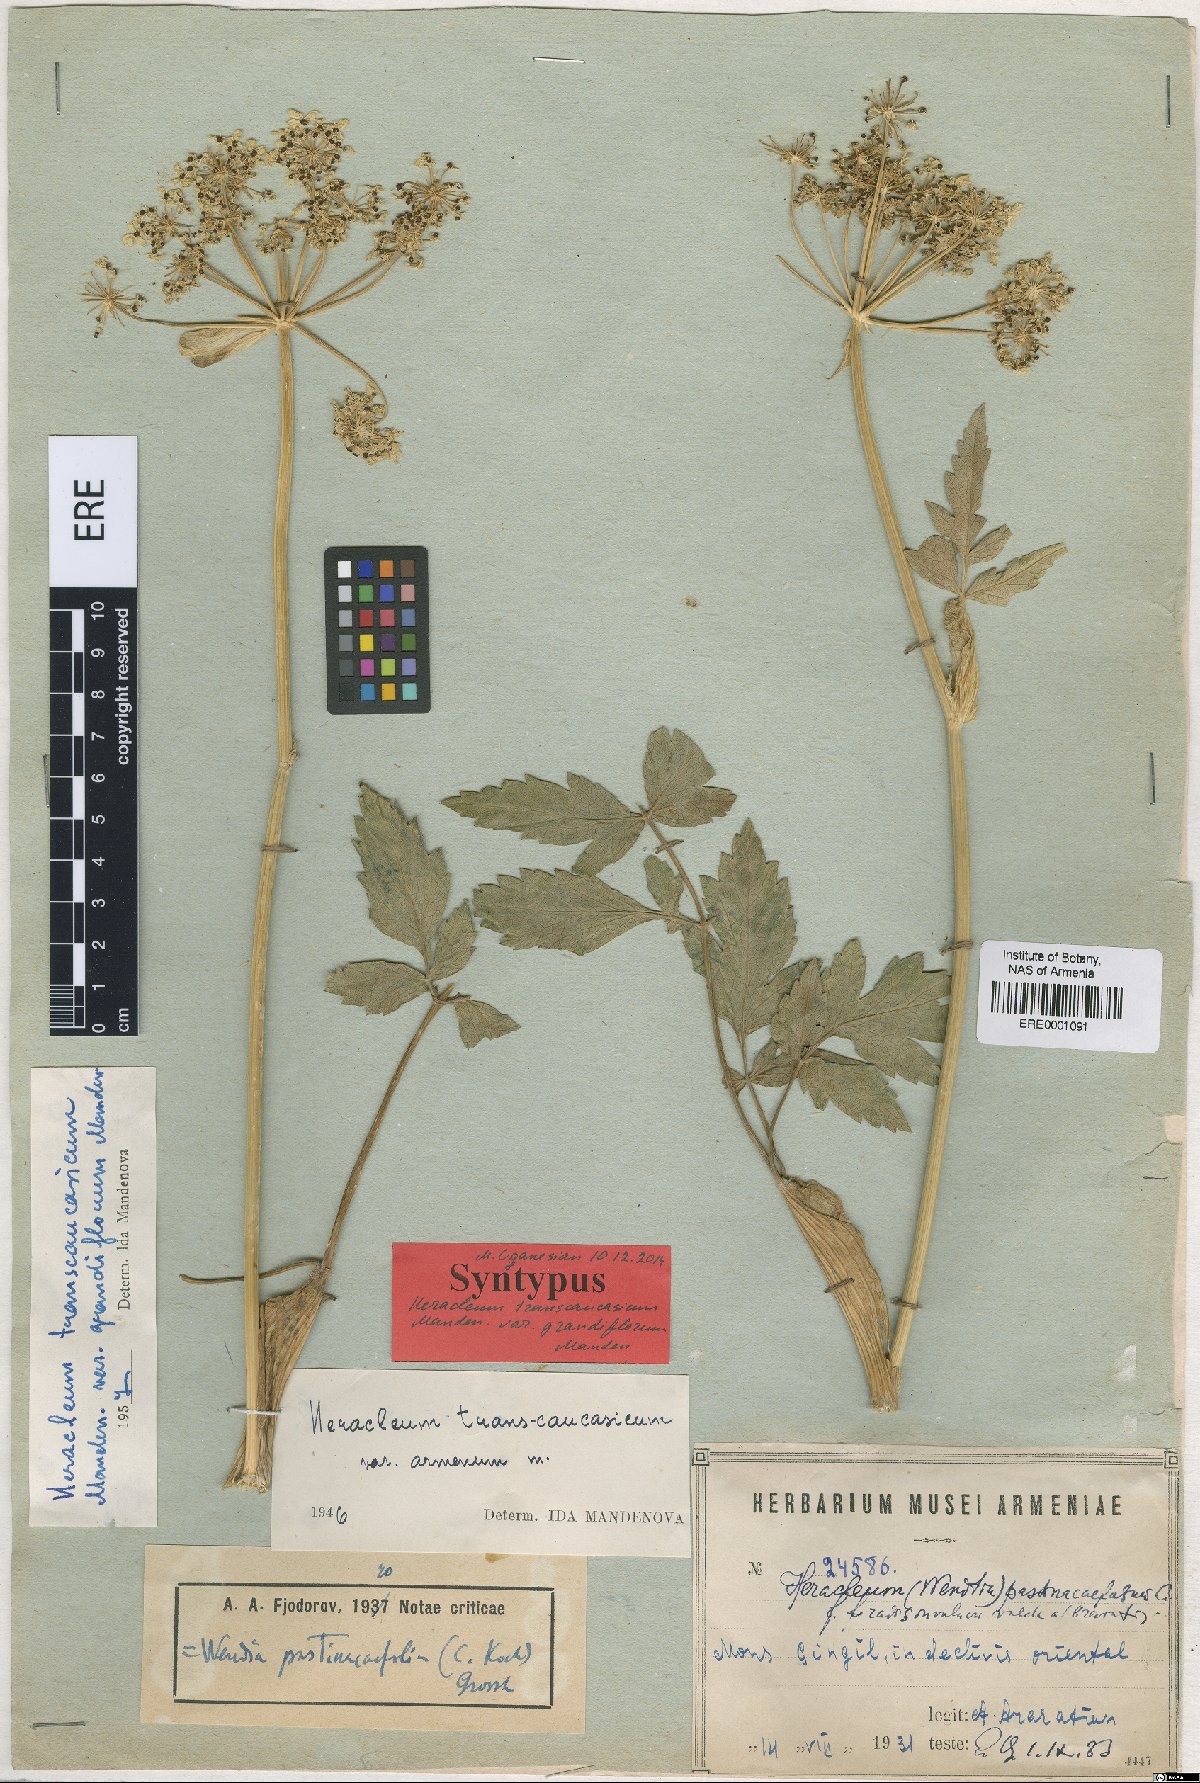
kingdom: Plantae
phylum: Tracheophyta
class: Magnoliopsida
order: Apiales
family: Apiaceae
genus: Heracleum
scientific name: Heracleum pastinacifolium
